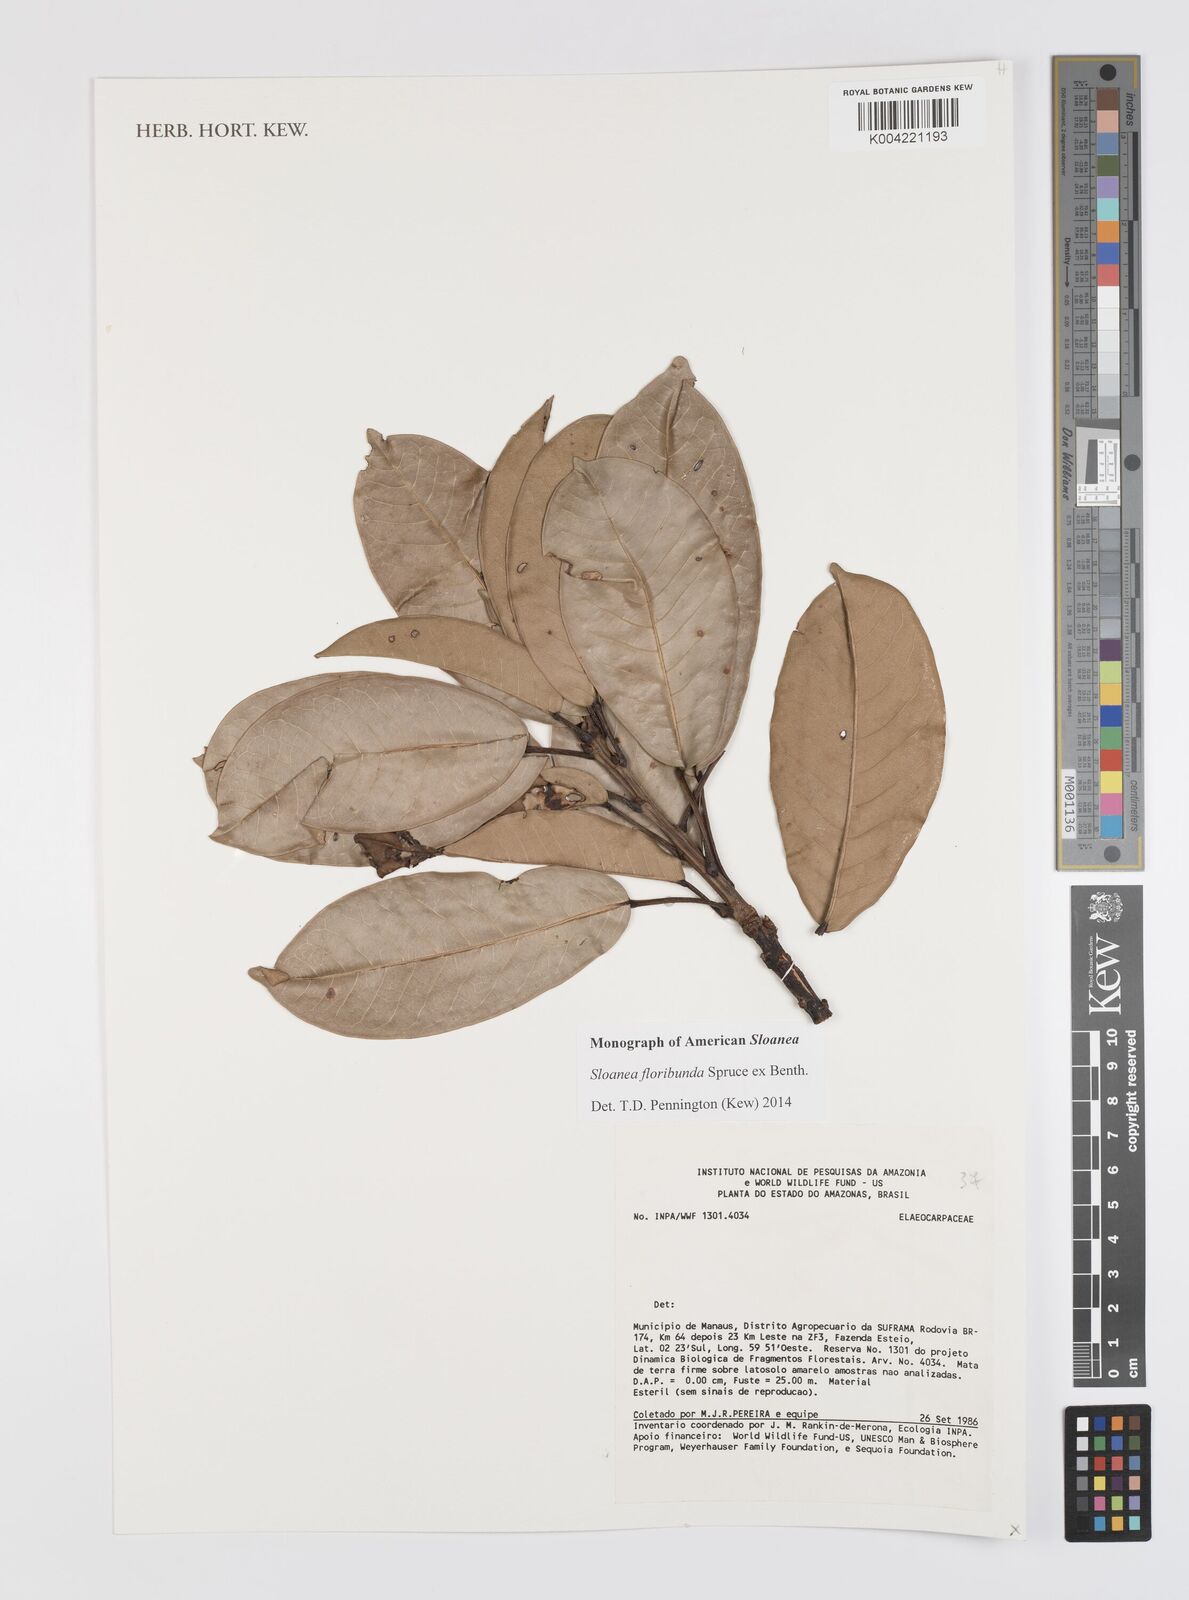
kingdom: Plantae
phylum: Tracheophyta
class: Magnoliopsida
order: Oxalidales
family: Elaeocarpaceae
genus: Sloanea
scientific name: Sloanea floribunda
